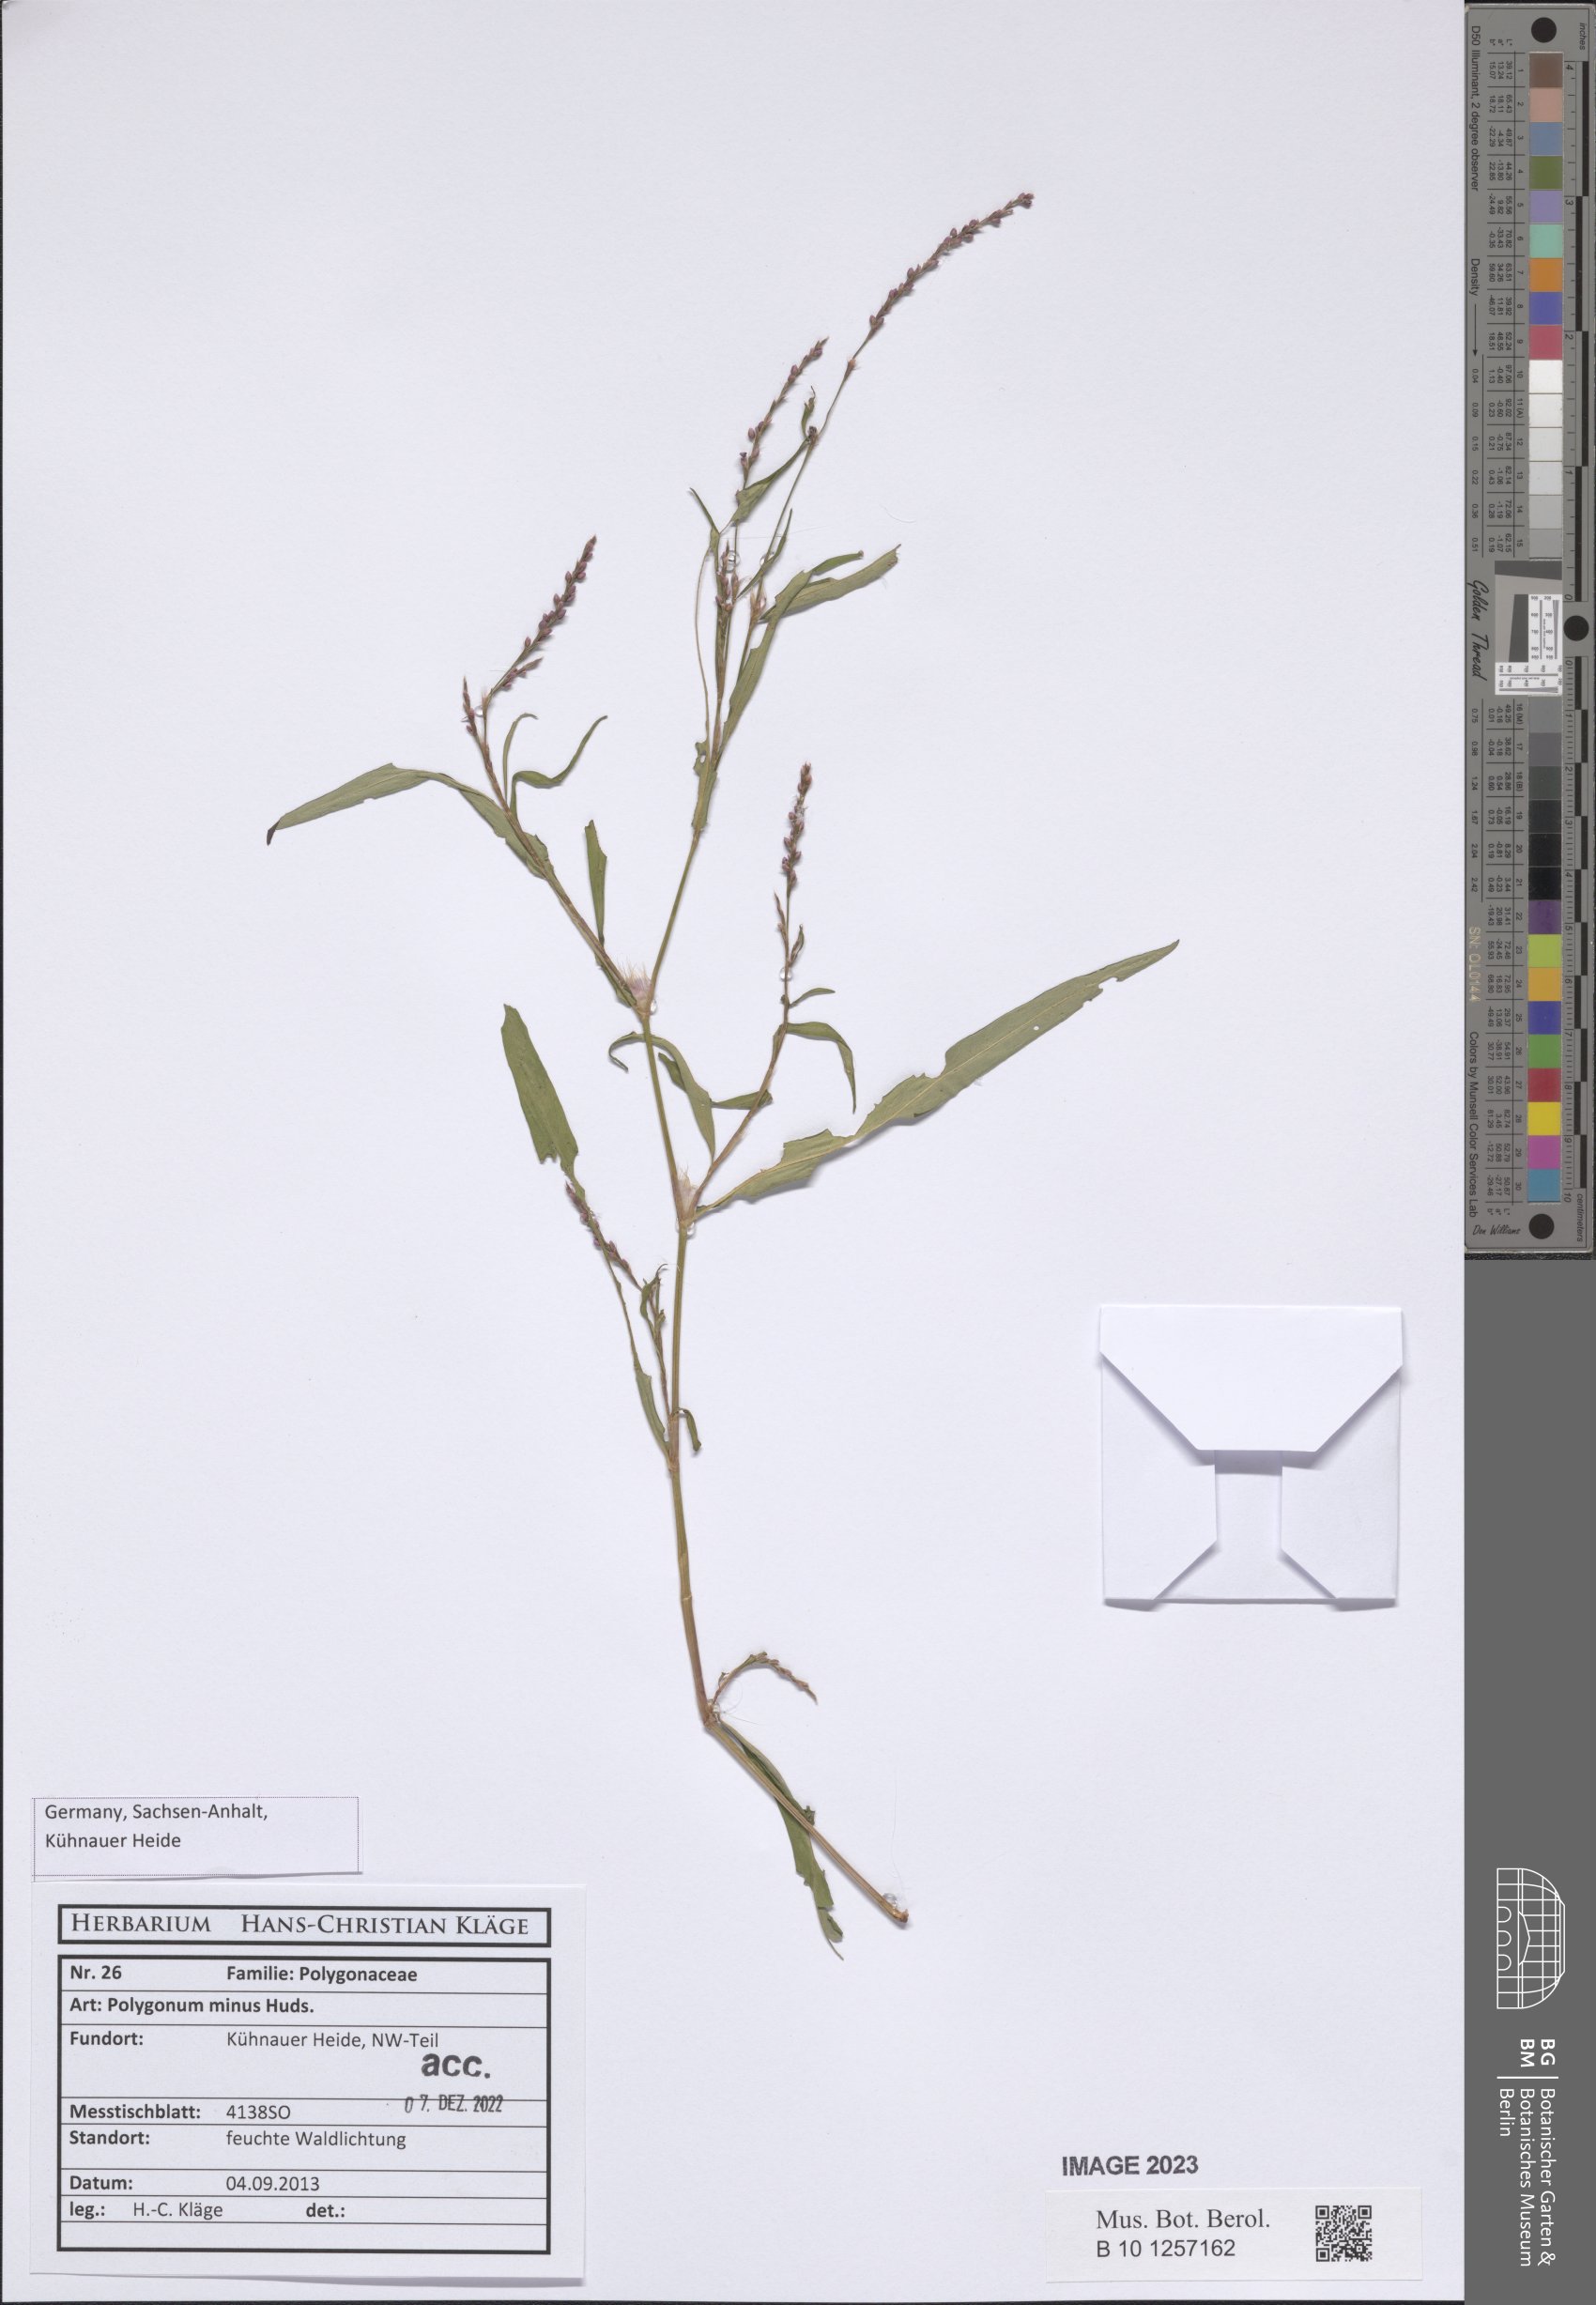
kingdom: Plantae
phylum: Tracheophyta
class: Magnoliopsida
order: Caryophyllales
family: Polygonaceae
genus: Persicaria
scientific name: Persicaria minor
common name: Small water-pepper
